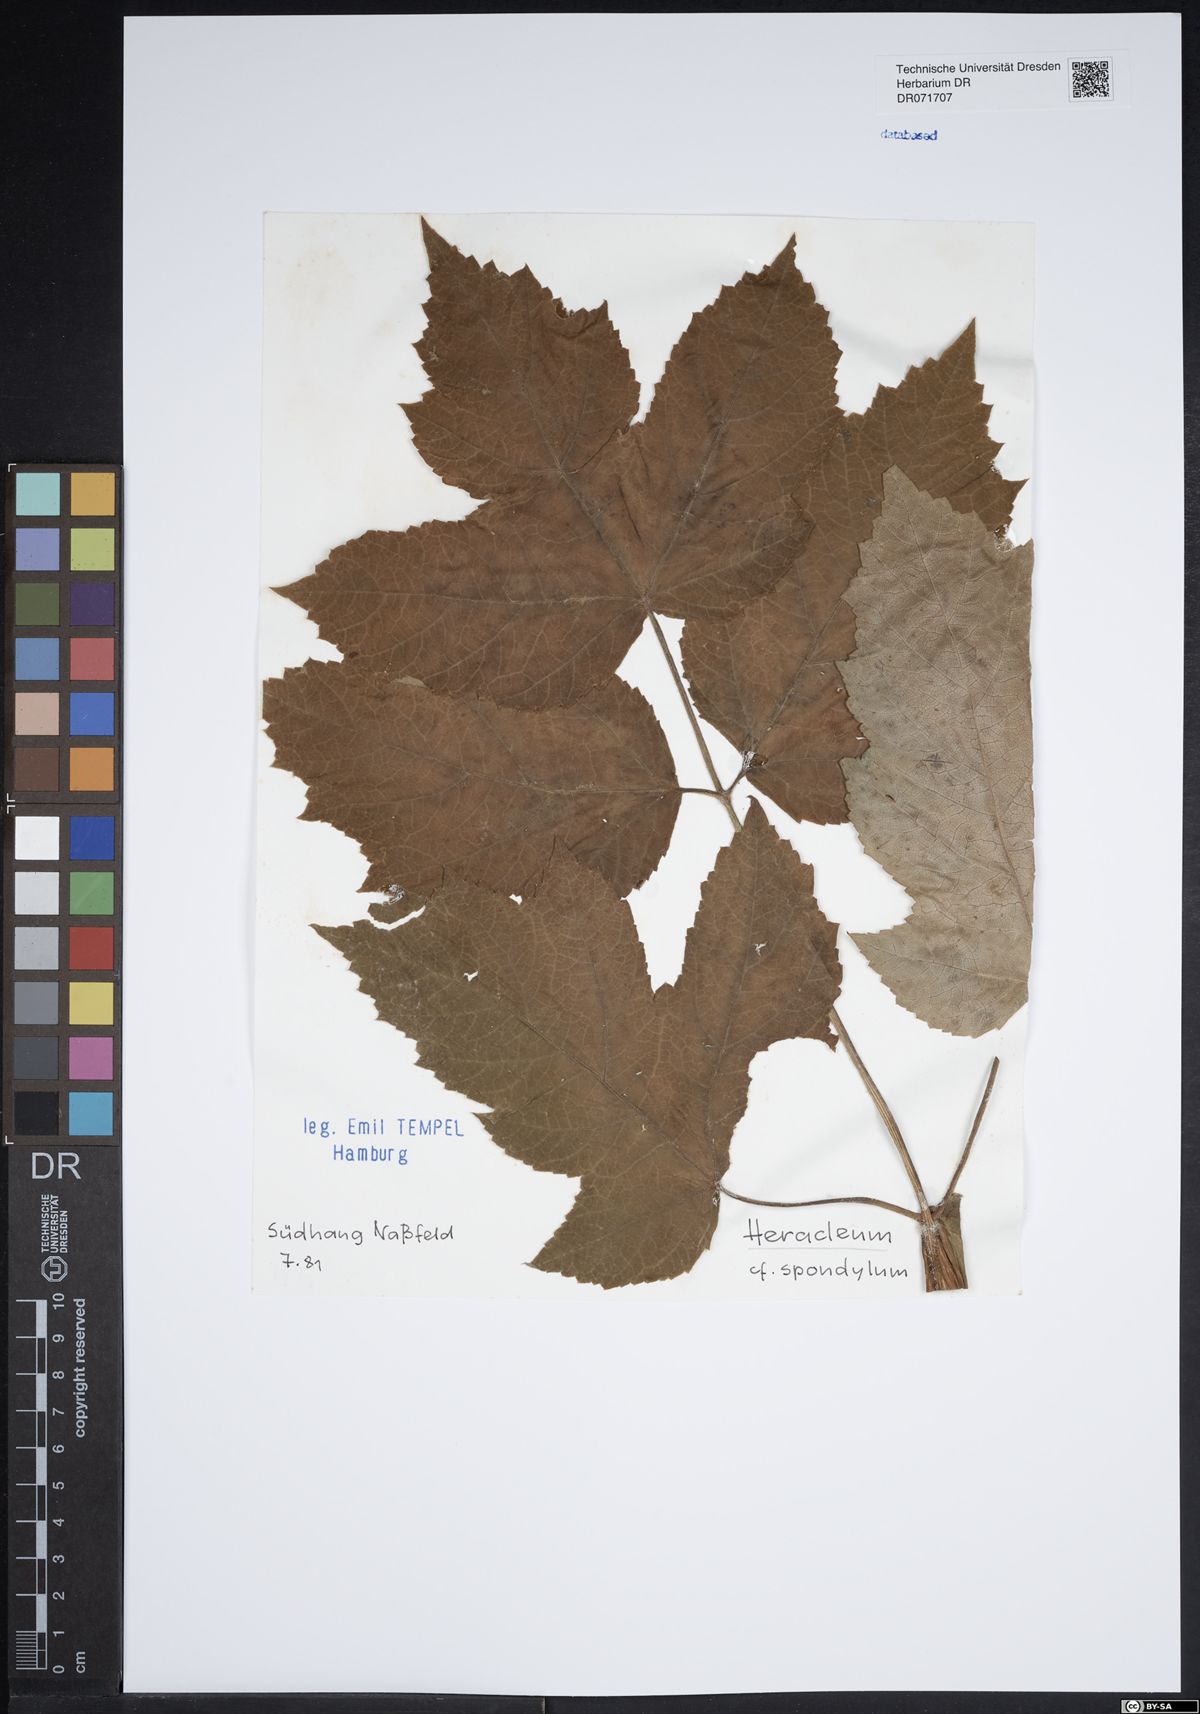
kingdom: Plantae
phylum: Tracheophyta
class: Magnoliopsida
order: Apiales
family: Apiaceae
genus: Heracleum
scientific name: Heracleum
